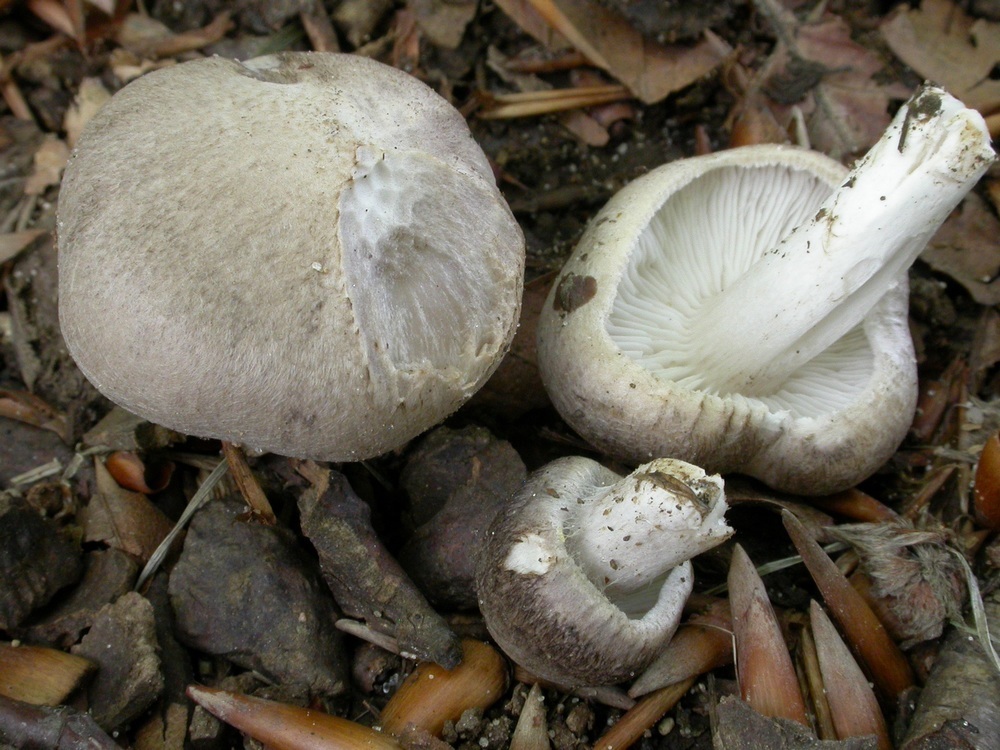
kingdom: Fungi
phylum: Basidiomycota
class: Agaricomycetes
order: Agaricales
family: Tricholomataceae
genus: Tricholoma
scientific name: Tricholoma scalpturatum
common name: gulplettet ridderhat
